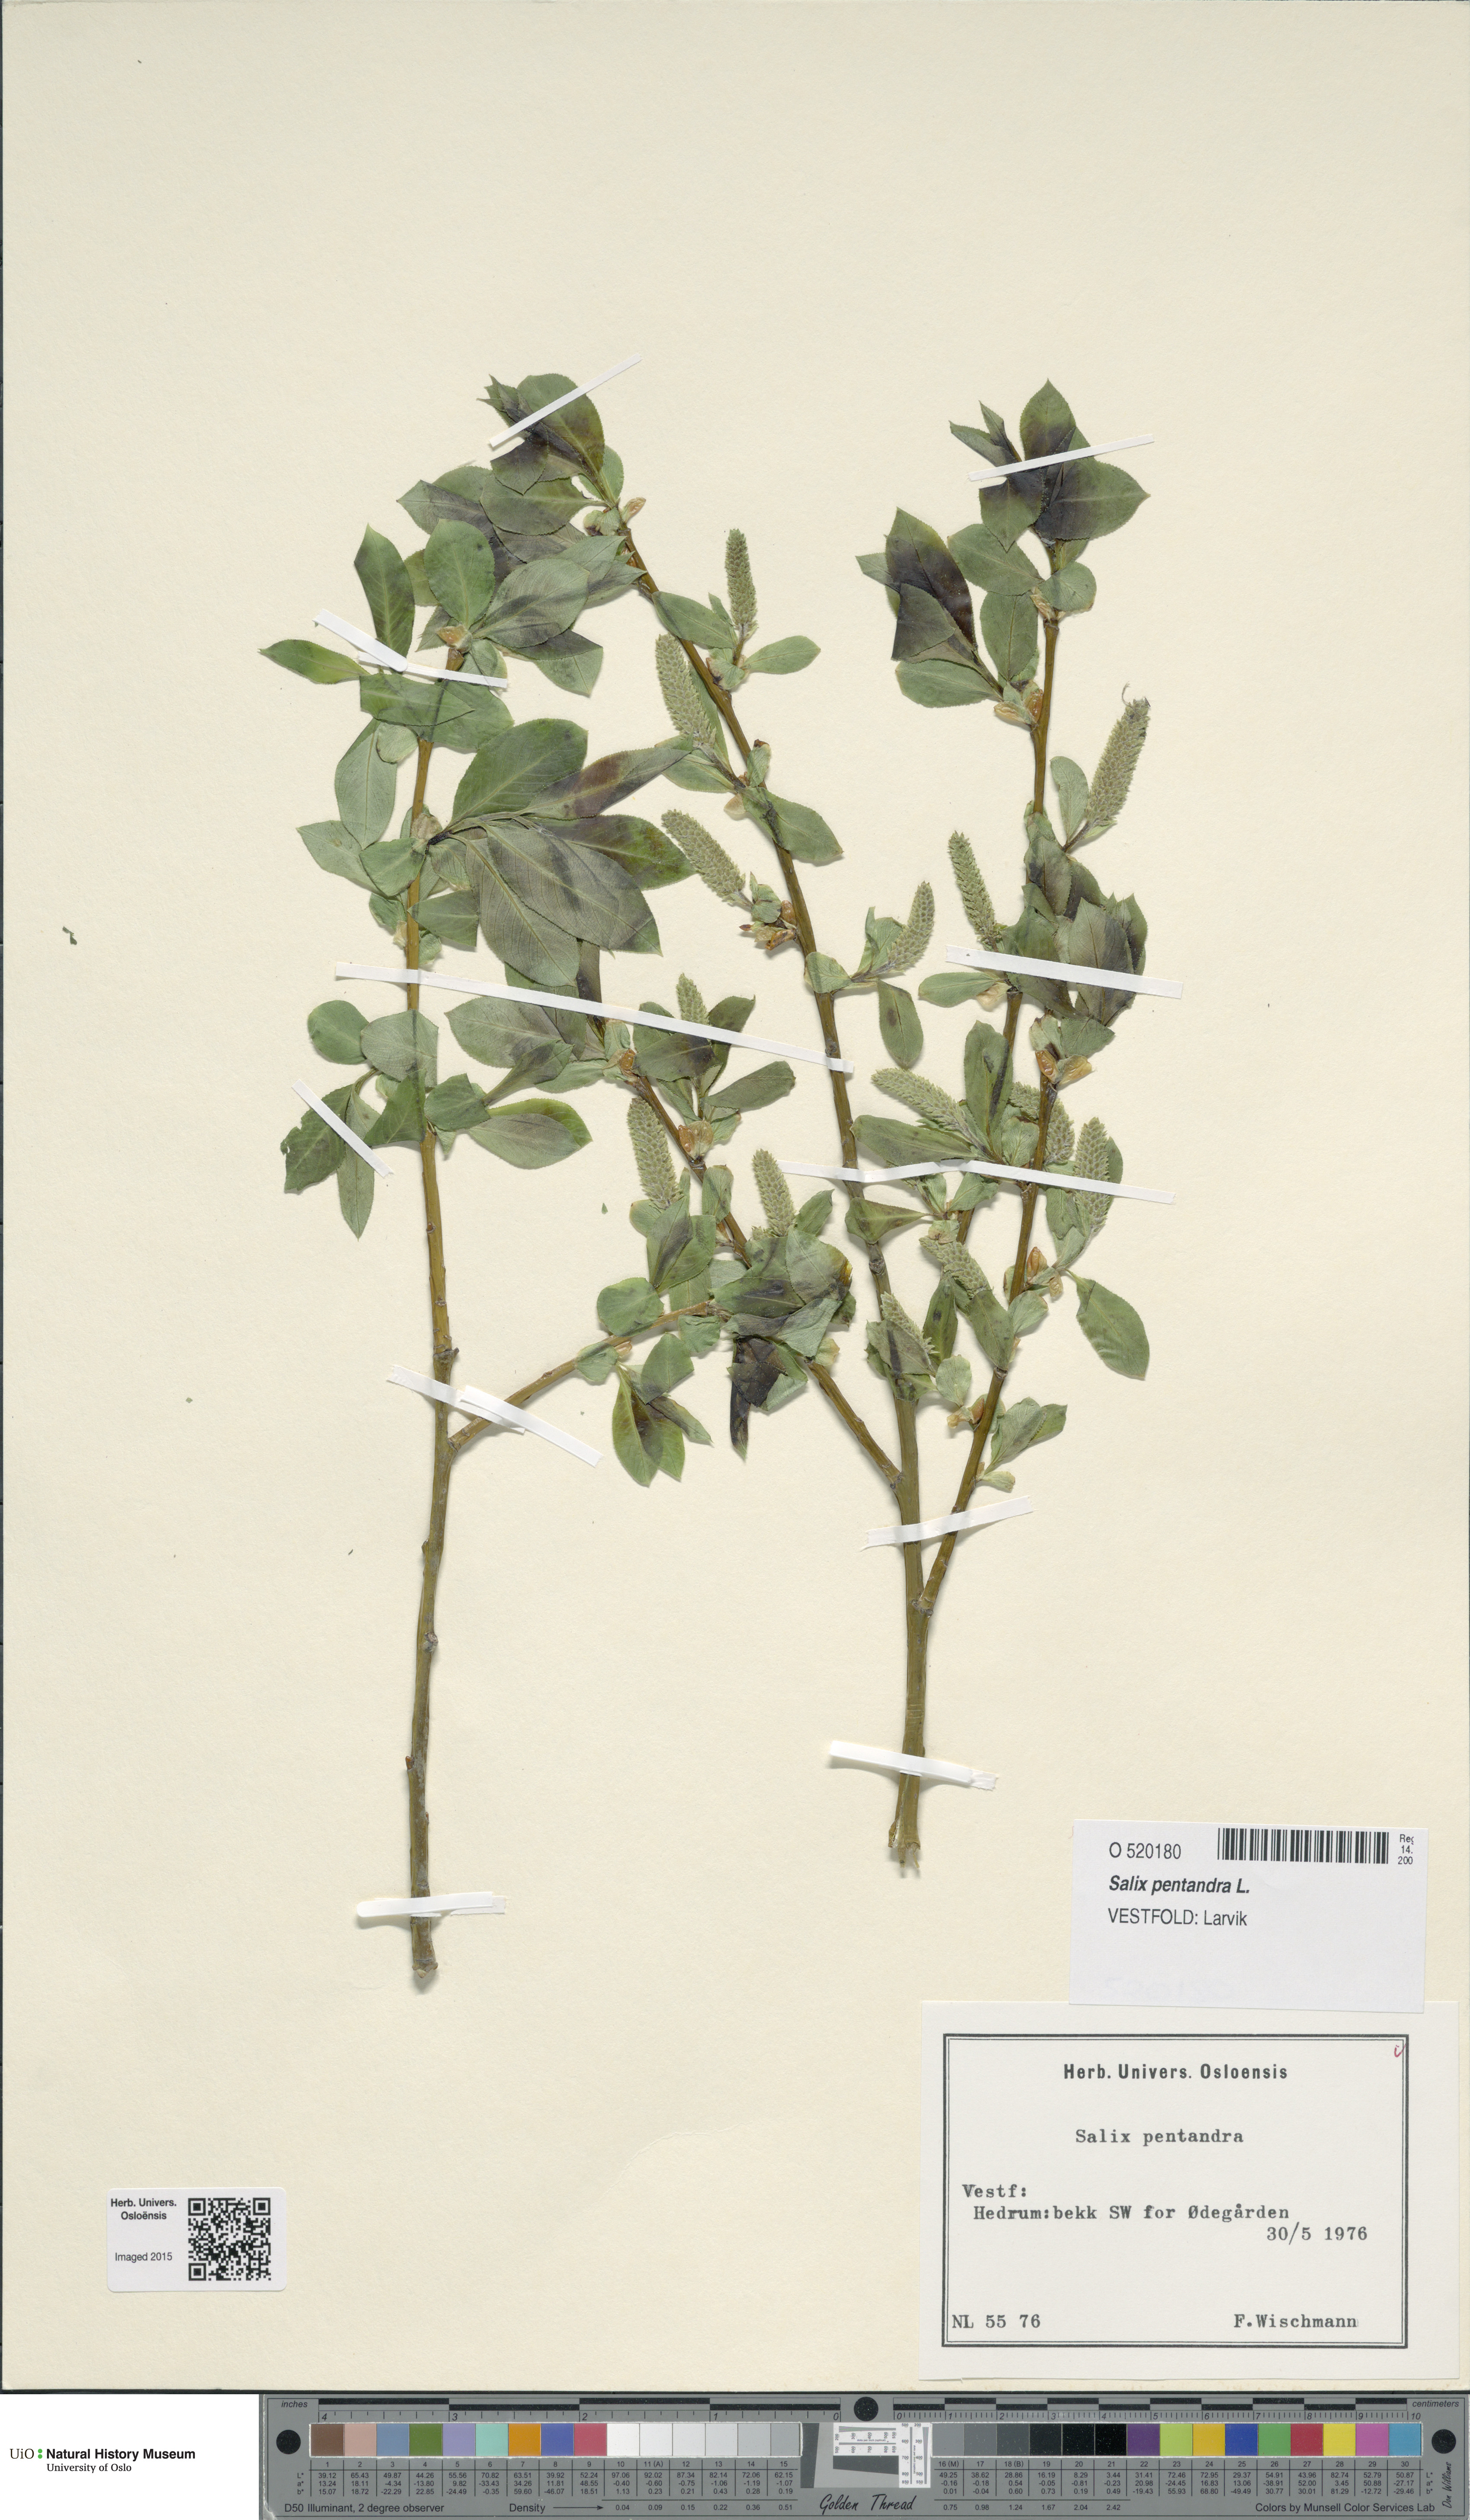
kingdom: Plantae
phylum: Tracheophyta
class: Magnoliopsida
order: Malpighiales
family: Salicaceae
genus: Salix
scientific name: Salix pentandra
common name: Bay willow
